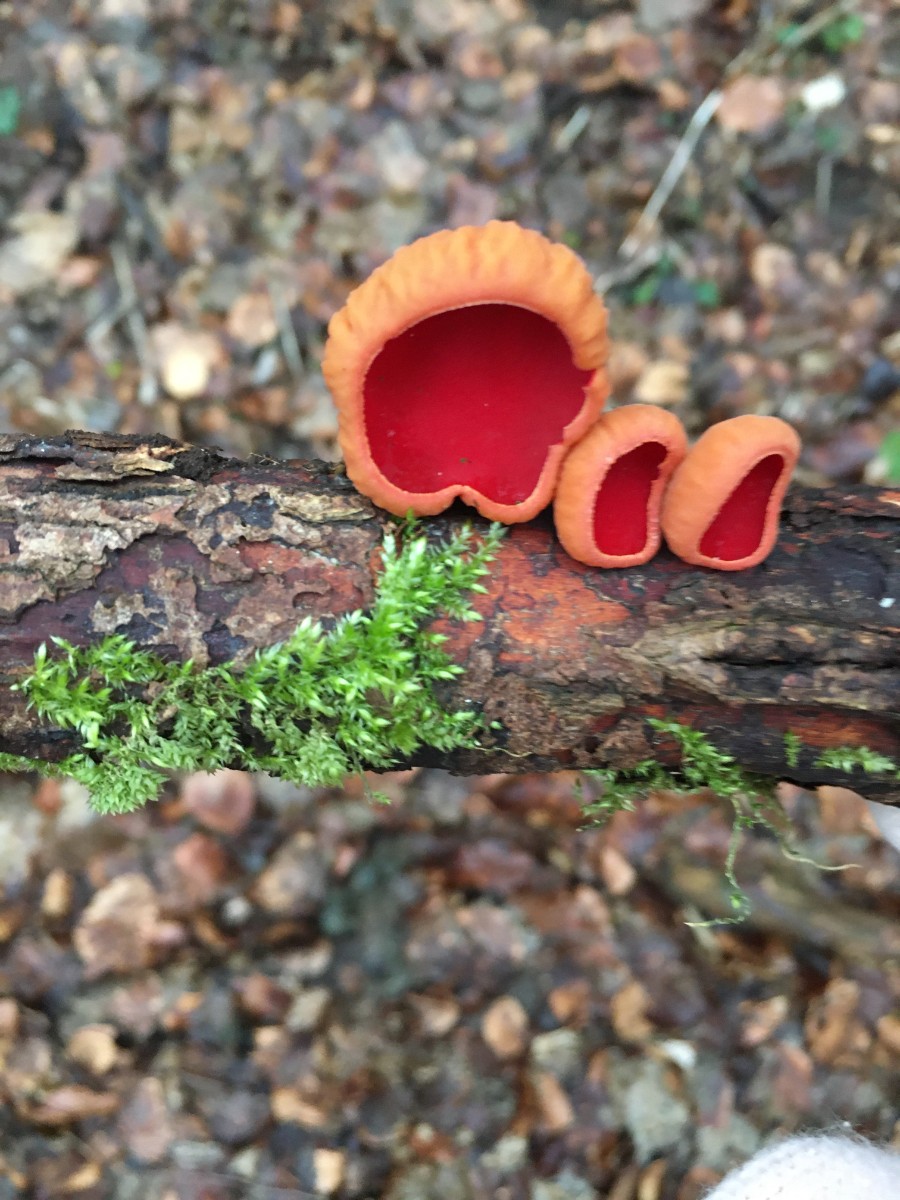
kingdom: Fungi
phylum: Ascomycota
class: Pezizomycetes
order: Pezizales
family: Sarcoscyphaceae
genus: Sarcoscypha
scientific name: Sarcoscypha austriaca
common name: krølhåret pragtbæger
